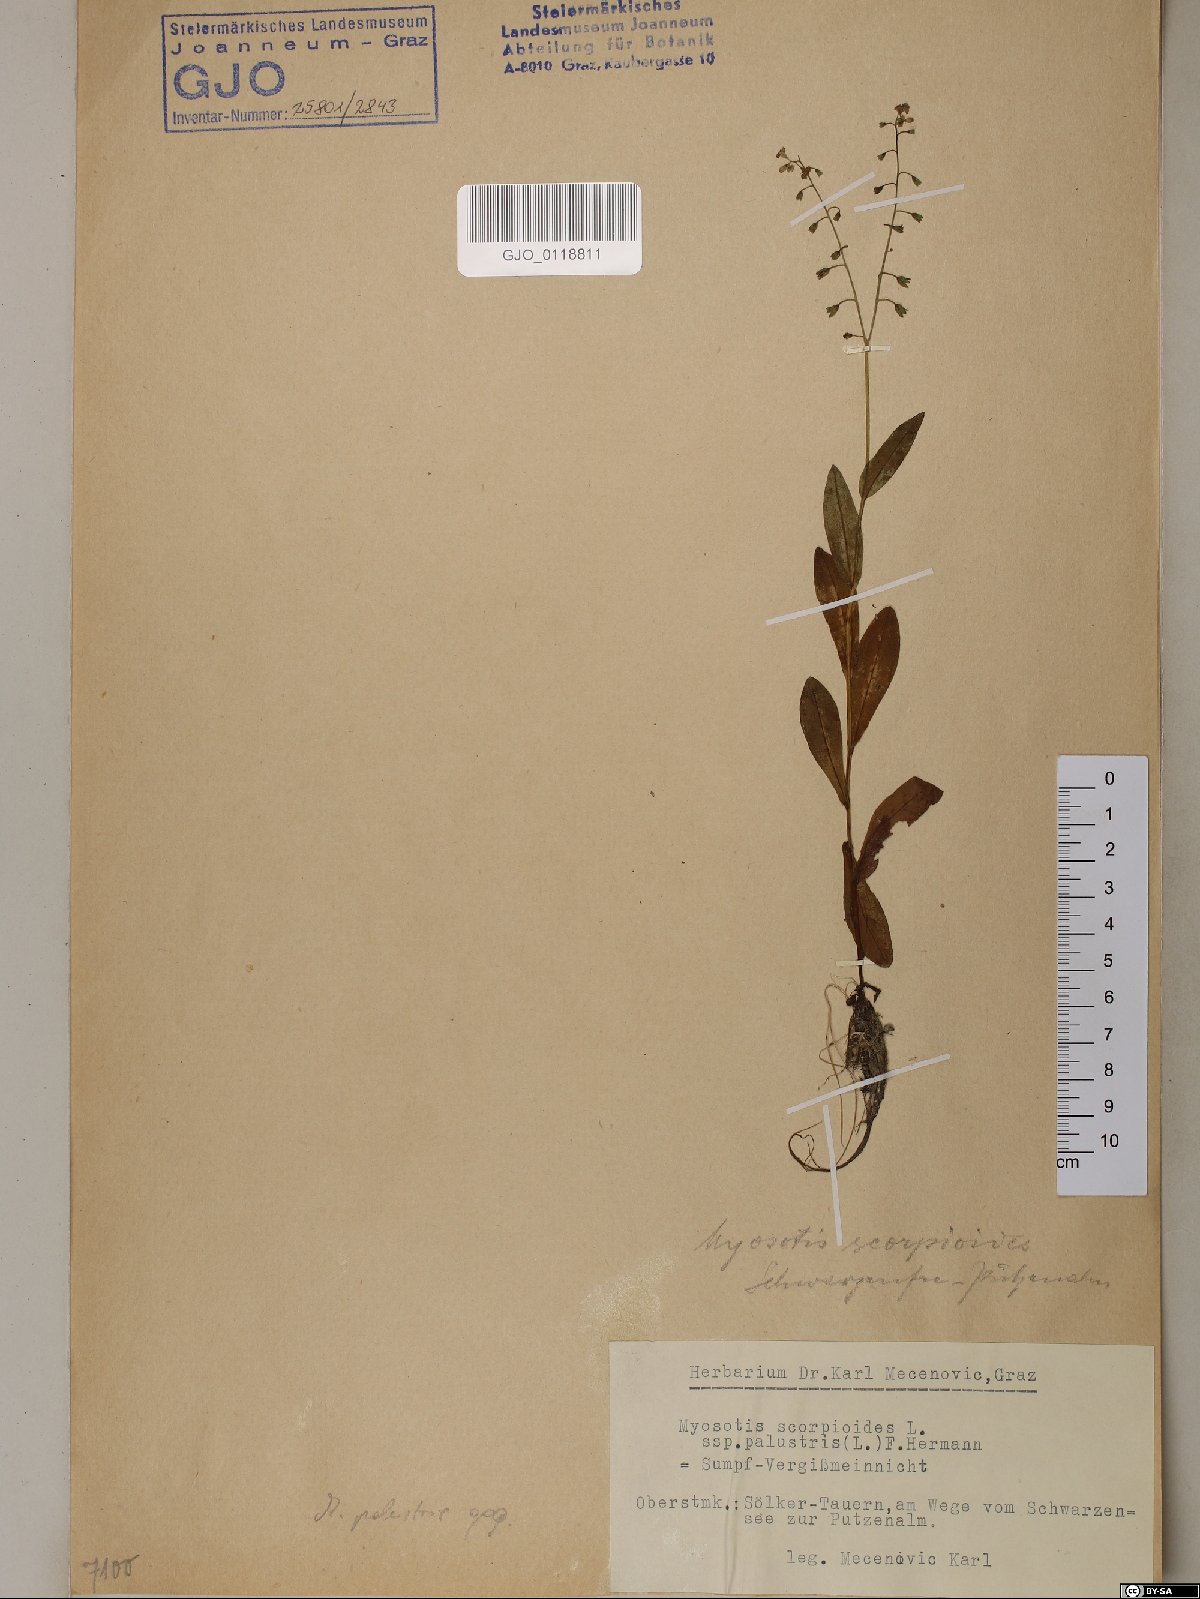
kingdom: Plantae
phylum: Tracheophyta
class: Magnoliopsida
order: Boraginales
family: Boraginaceae
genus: Myosotis
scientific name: Myosotis scorpioides
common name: Water forget-me-not
